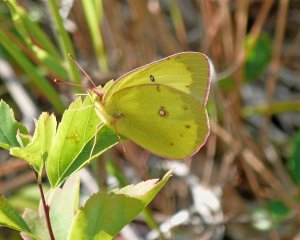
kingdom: Animalia
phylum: Arthropoda
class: Insecta
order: Lepidoptera
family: Pieridae
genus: Colias
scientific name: Colias philodice
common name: Clouded Sulphur
